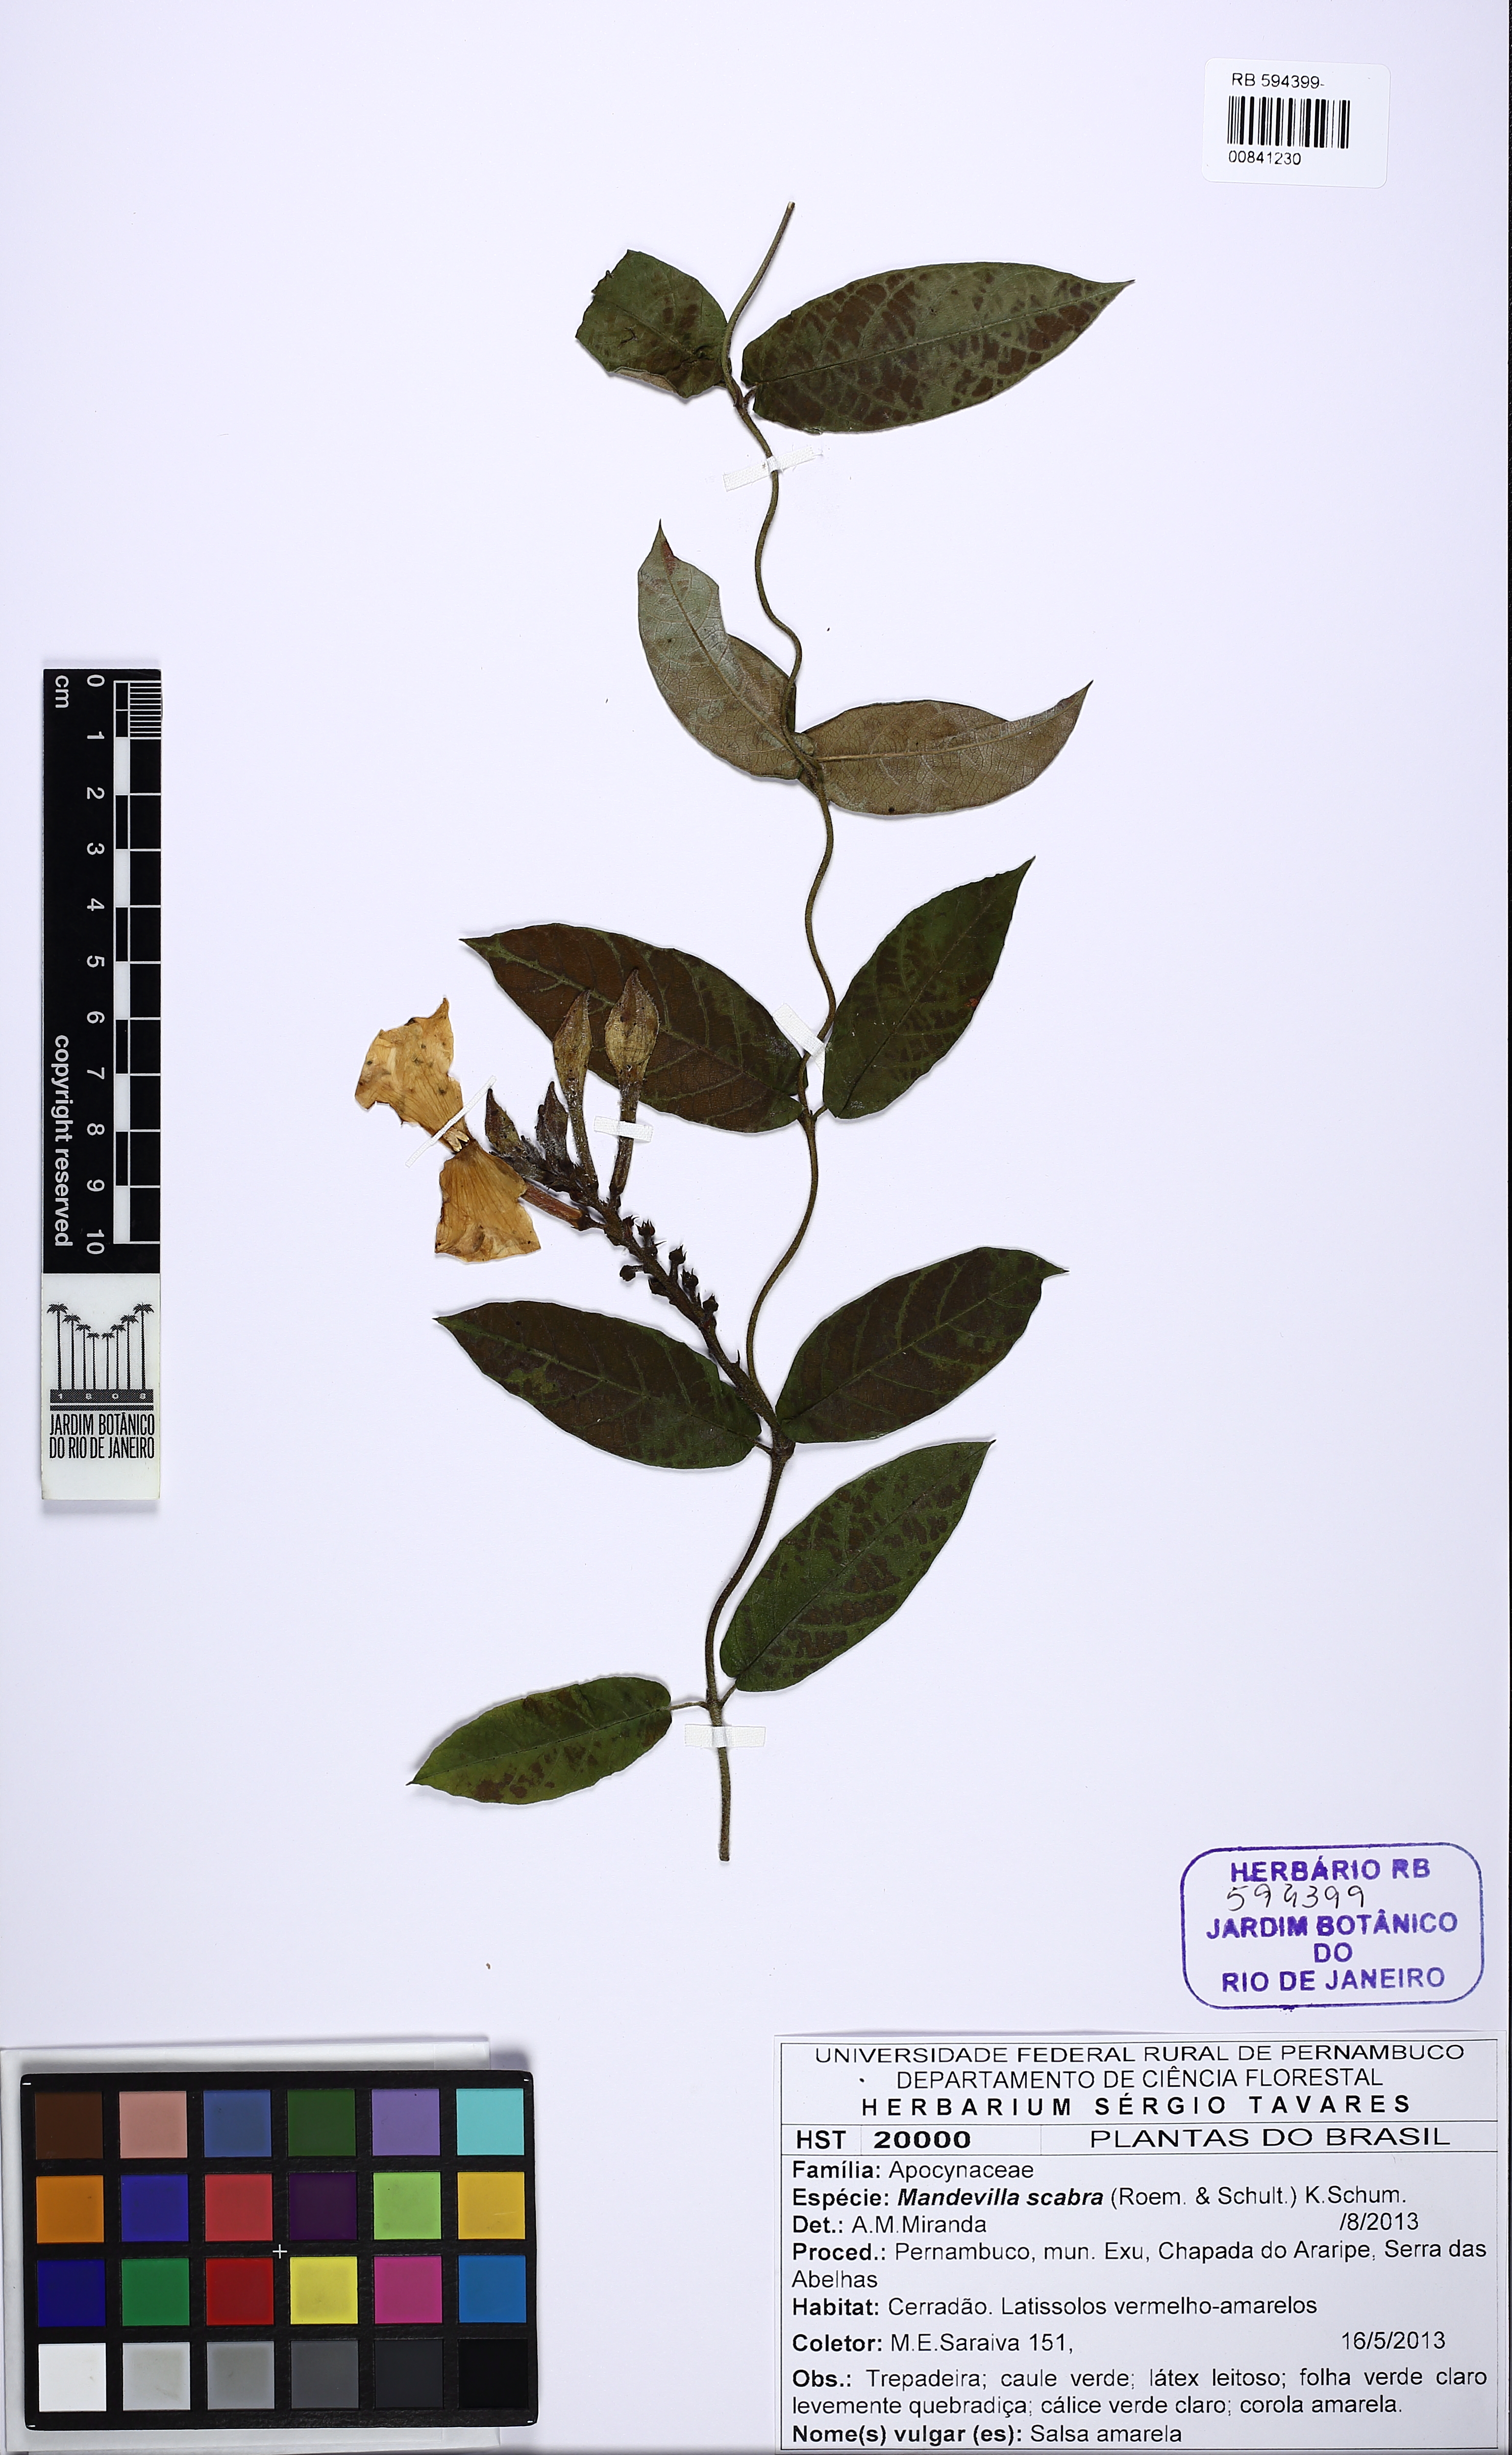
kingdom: Plantae
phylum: Tracheophyta
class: Magnoliopsida
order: Gentianales
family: Apocynaceae
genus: Mandevilla
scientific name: Mandevilla scabra
